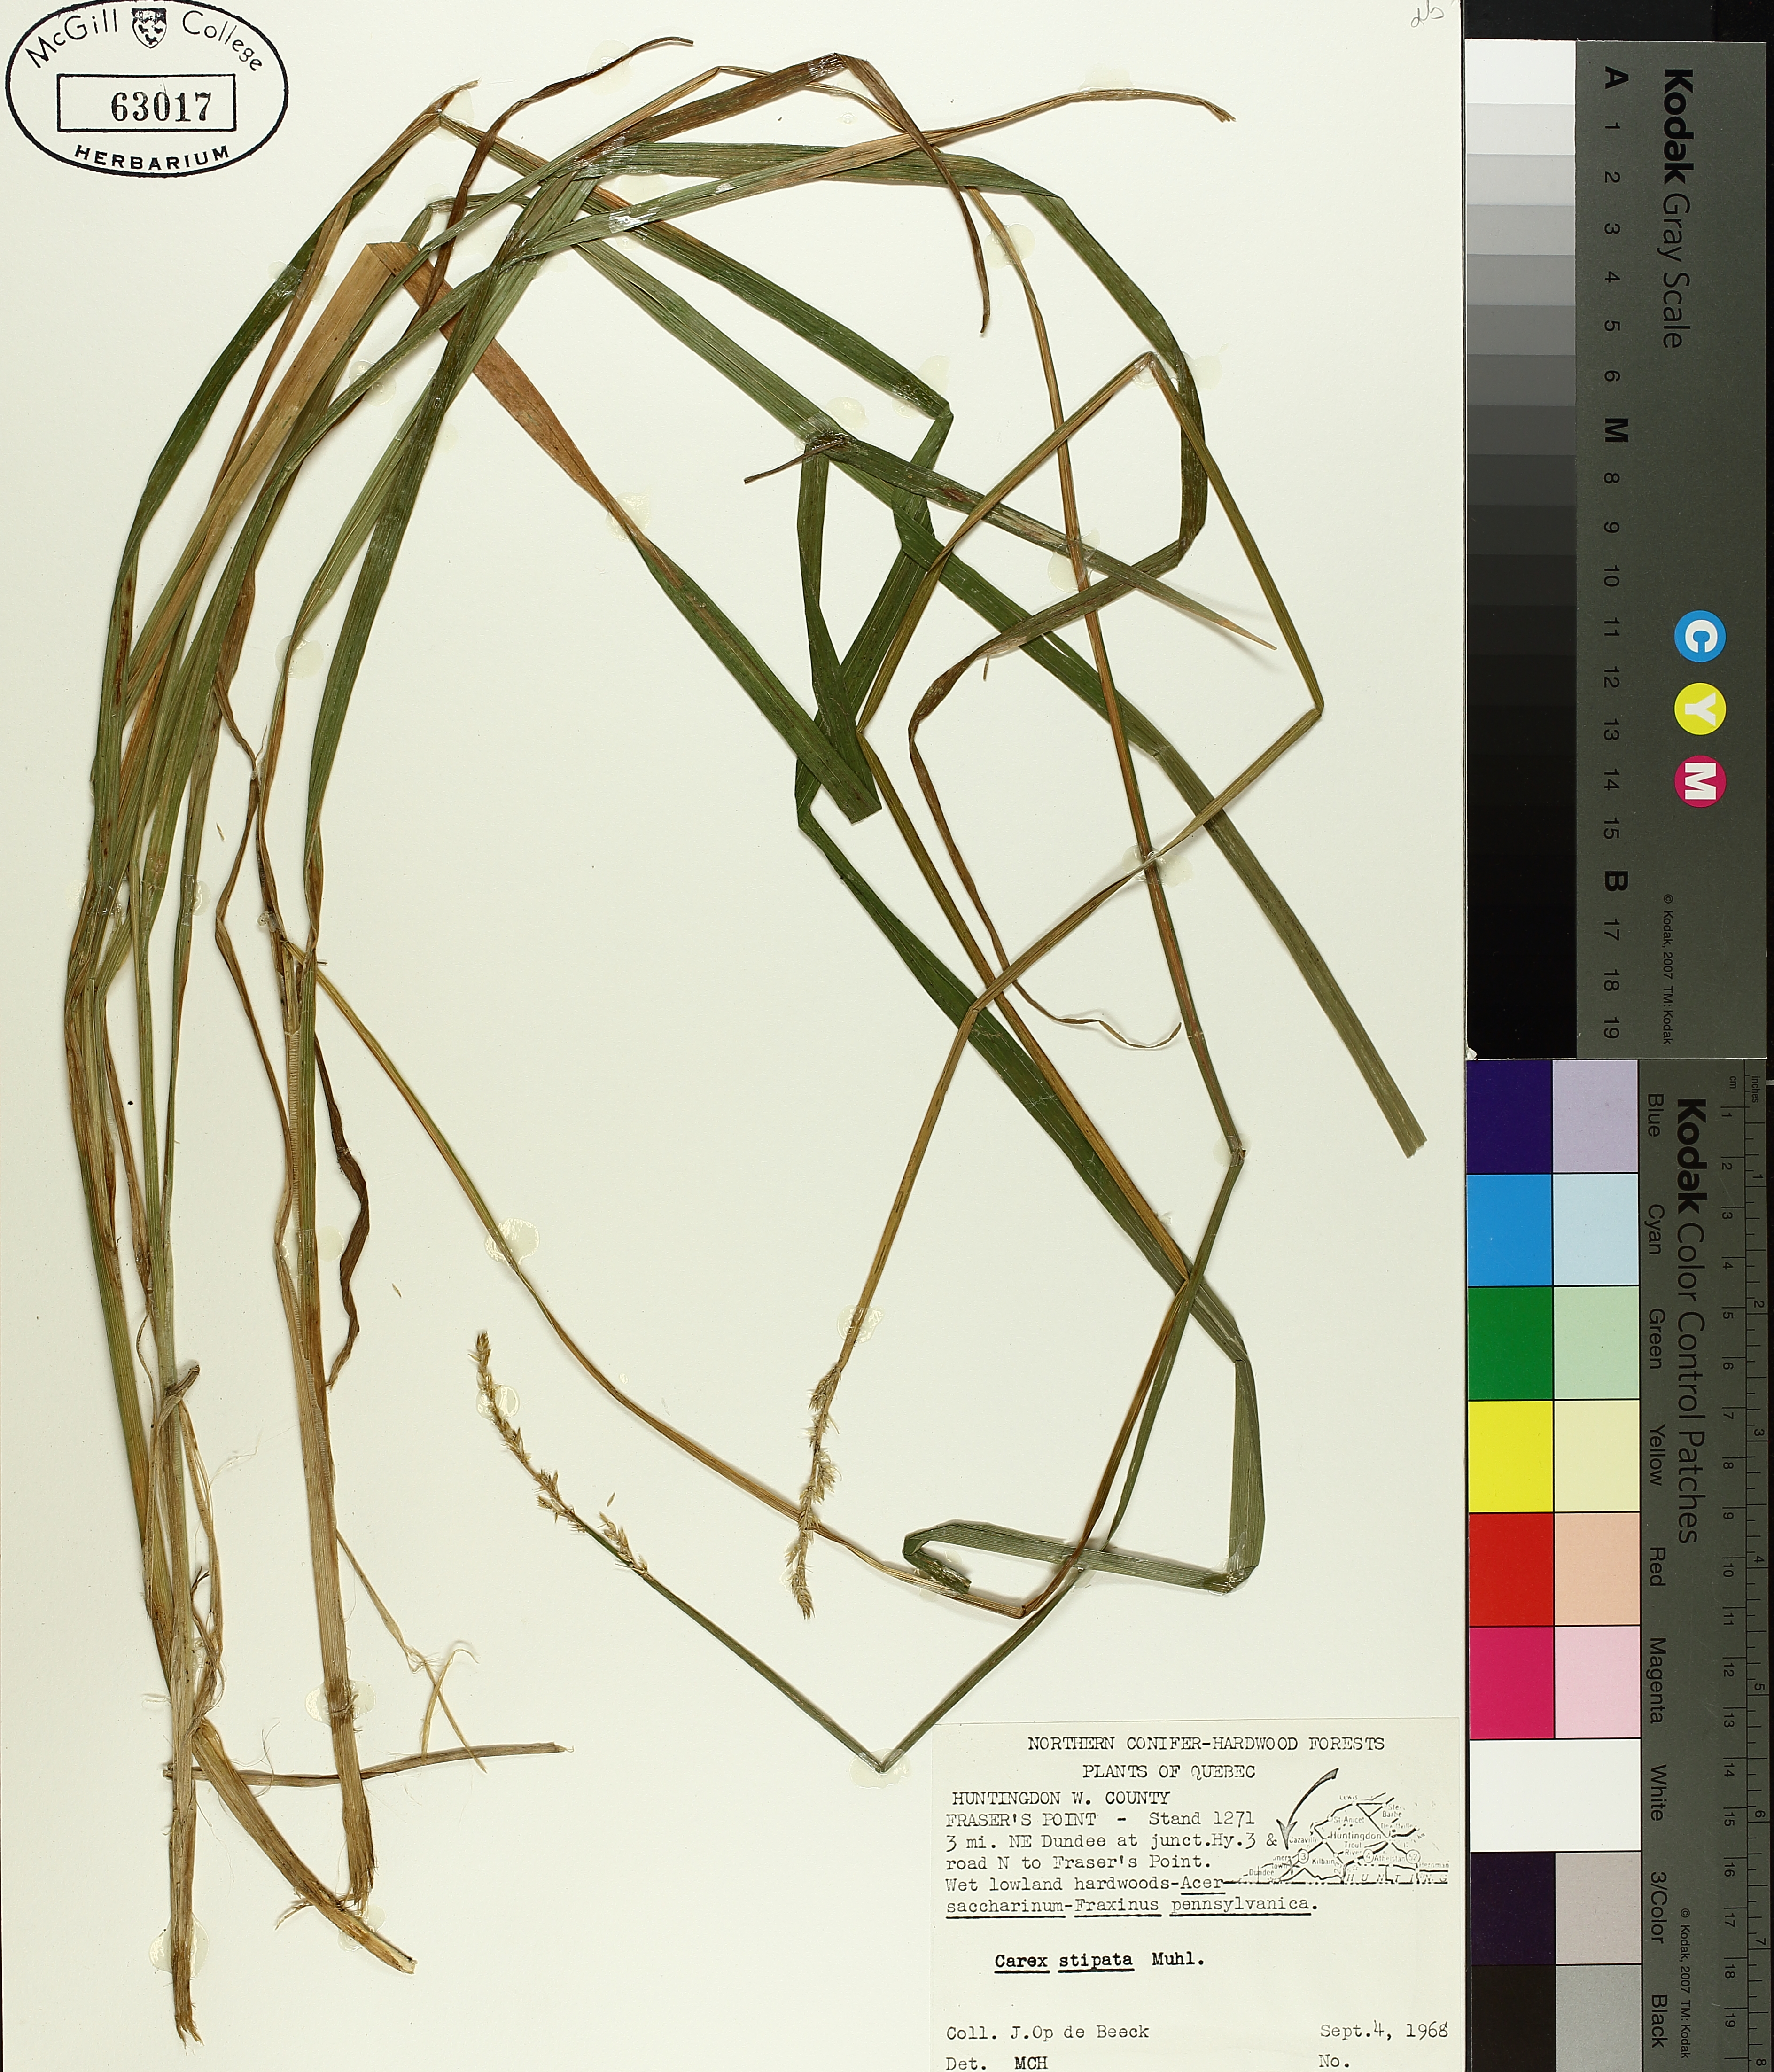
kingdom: Plantae
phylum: Tracheophyta
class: Liliopsida
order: Poales
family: Cyperaceae
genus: Carex
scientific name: Carex stipata
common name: Awl-fruited sedge
